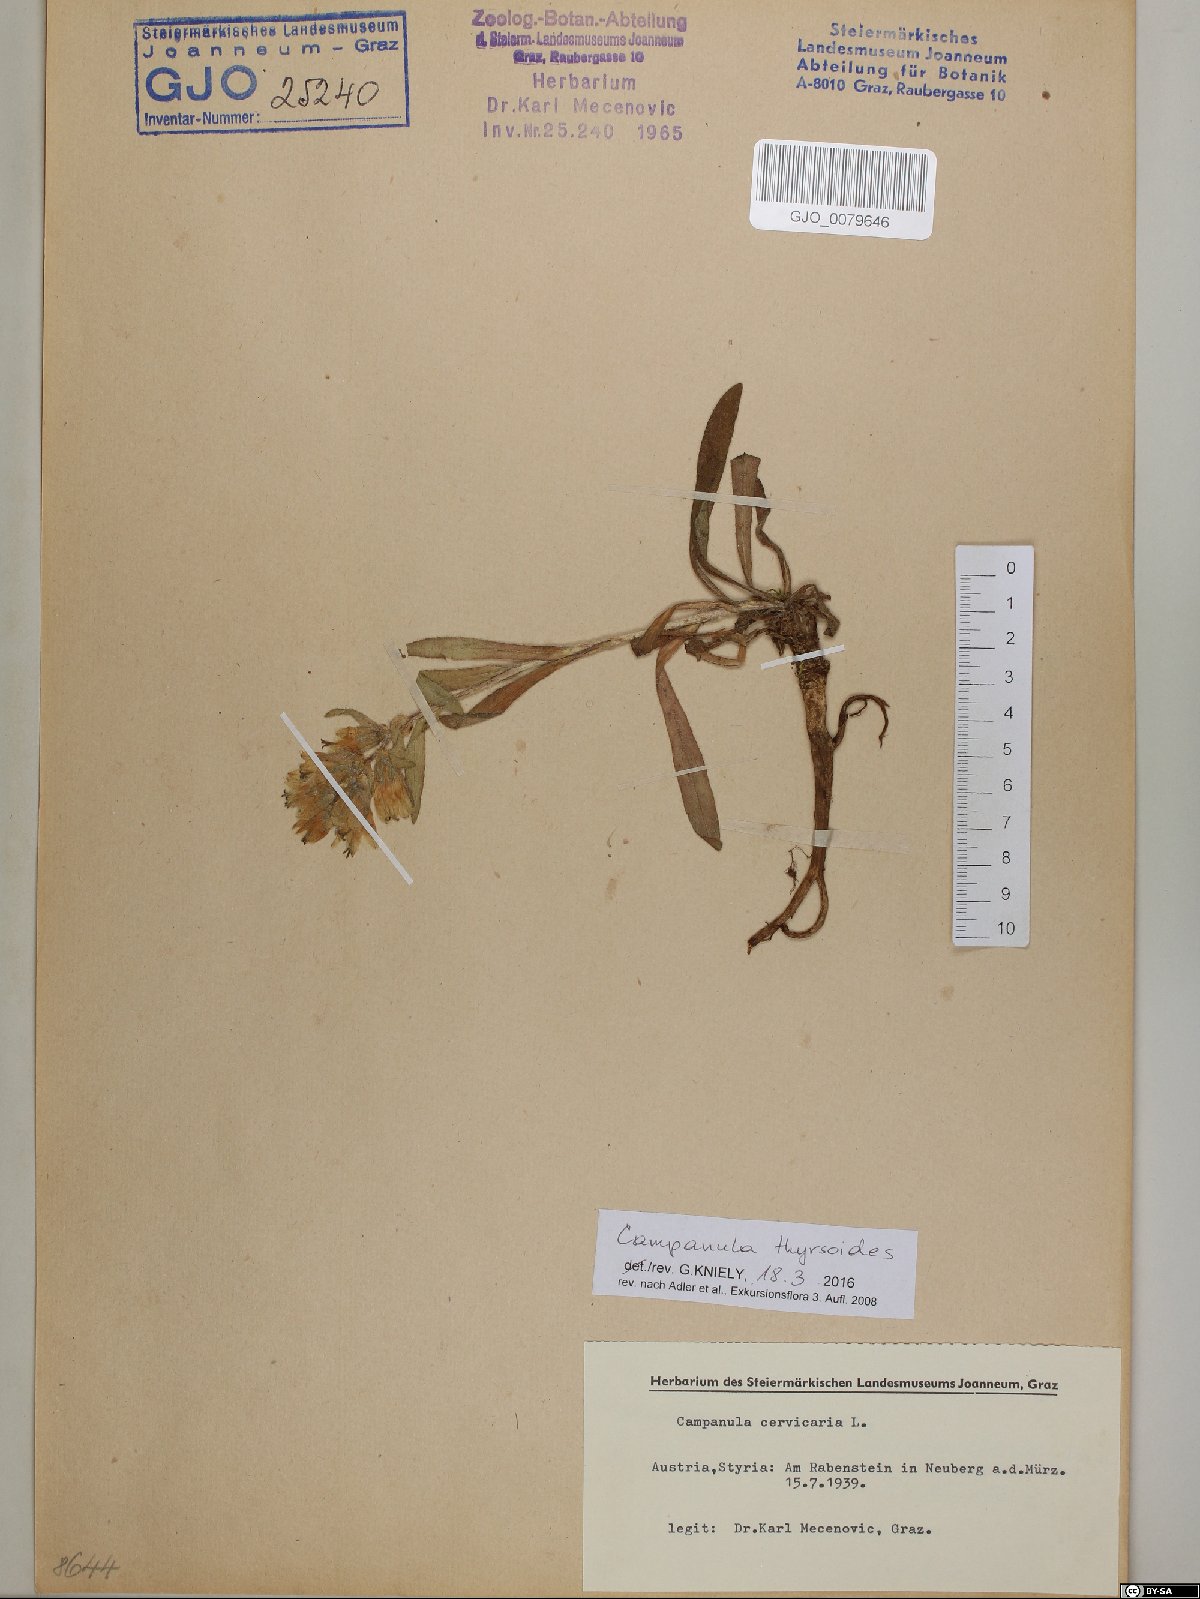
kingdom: Plantae
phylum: Tracheophyta
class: Magnoliopsida
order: Asterales
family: Campanulaceae
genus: Campanula
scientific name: Campanula thyrsoides
